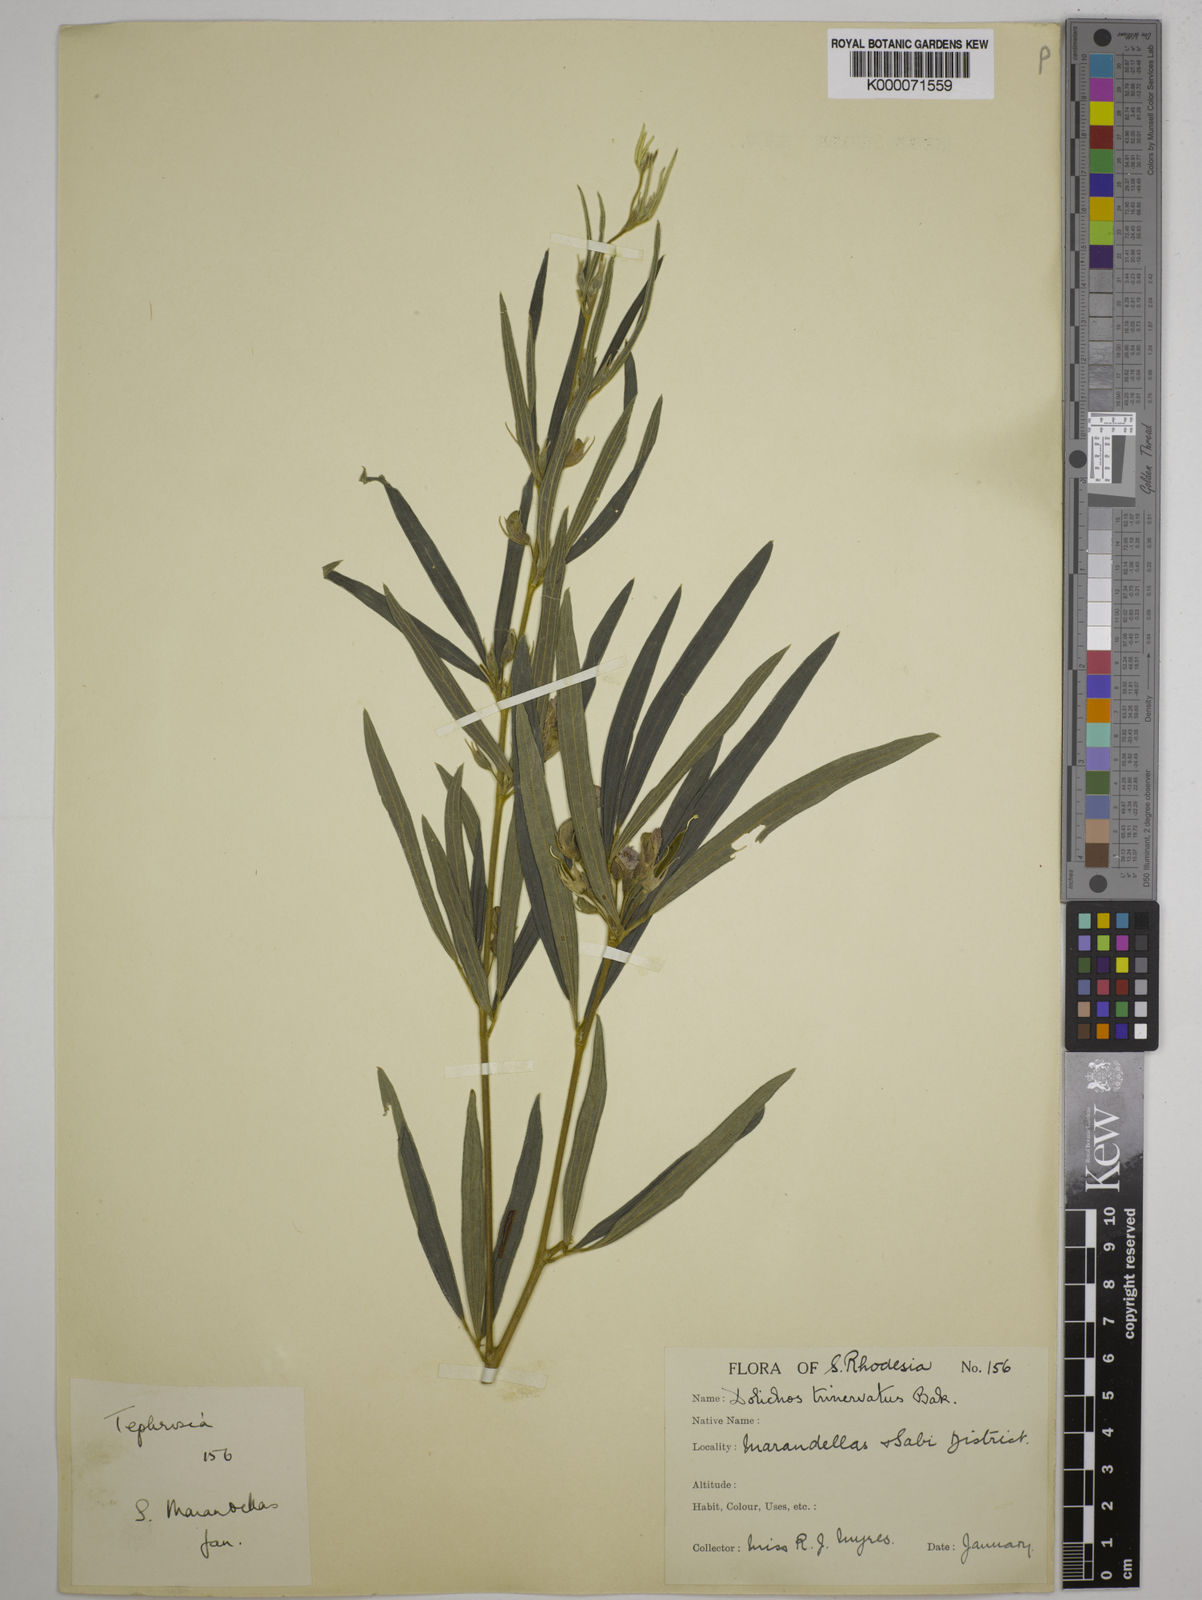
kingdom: Plantae
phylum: Tracheophyta
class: Magnoliopsida
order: Fabales
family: Fabaceae
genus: Dolichos
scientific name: Dolichos trinervatus
